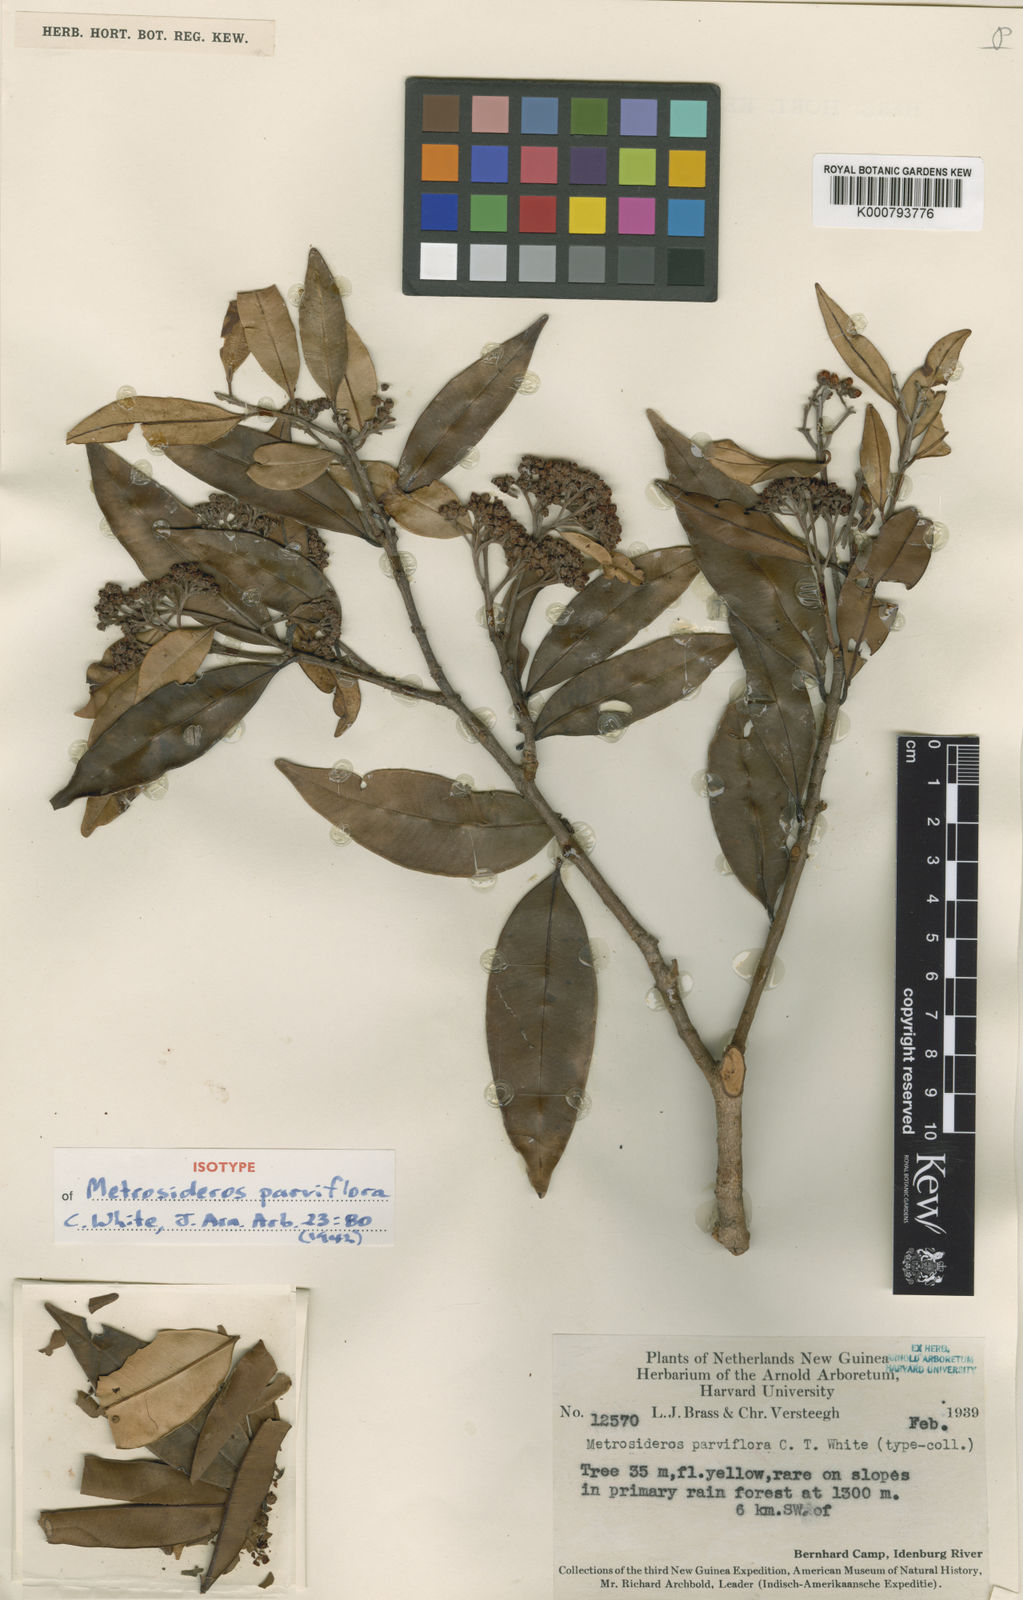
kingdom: Plantae
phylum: Tracheophyta
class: Magnoliopsida
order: Myrtales
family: Myrtaceae
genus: Kania
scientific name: Kania eugenioides
